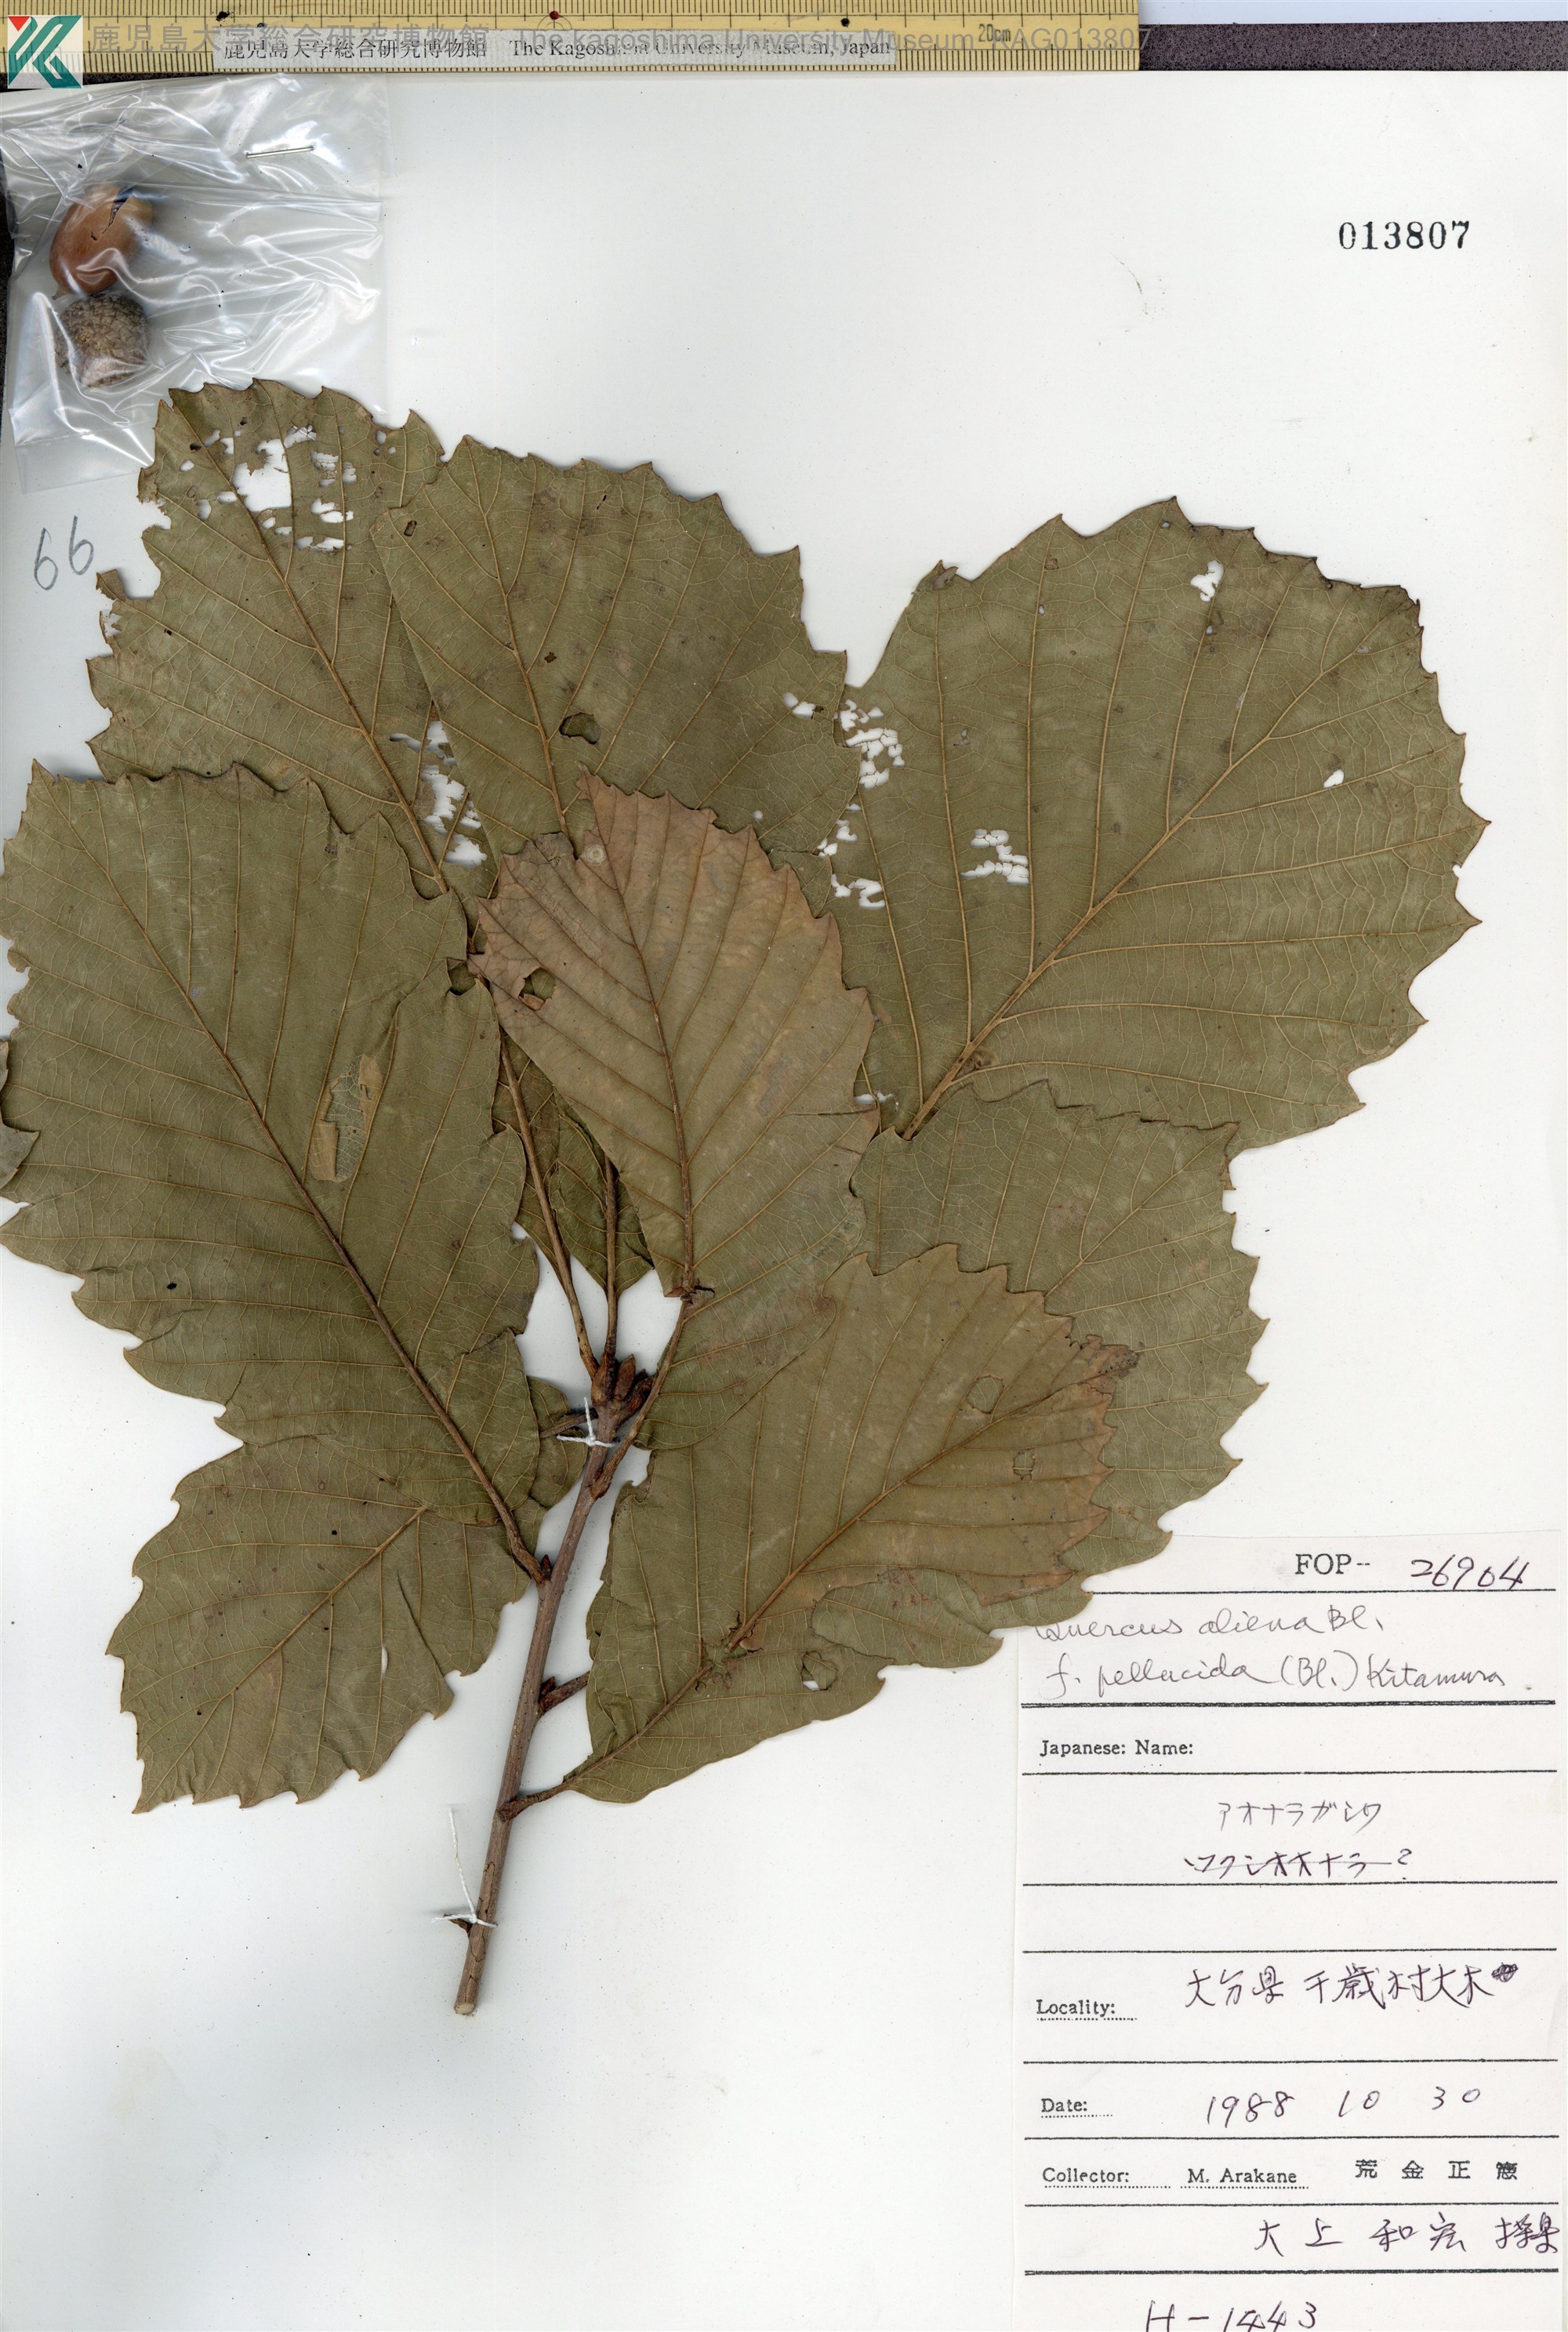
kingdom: Plantae
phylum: Tracheophyta
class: Magnoliopsida
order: Fagales
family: Fagaceae
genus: Quercus
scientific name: Quercus aliena
